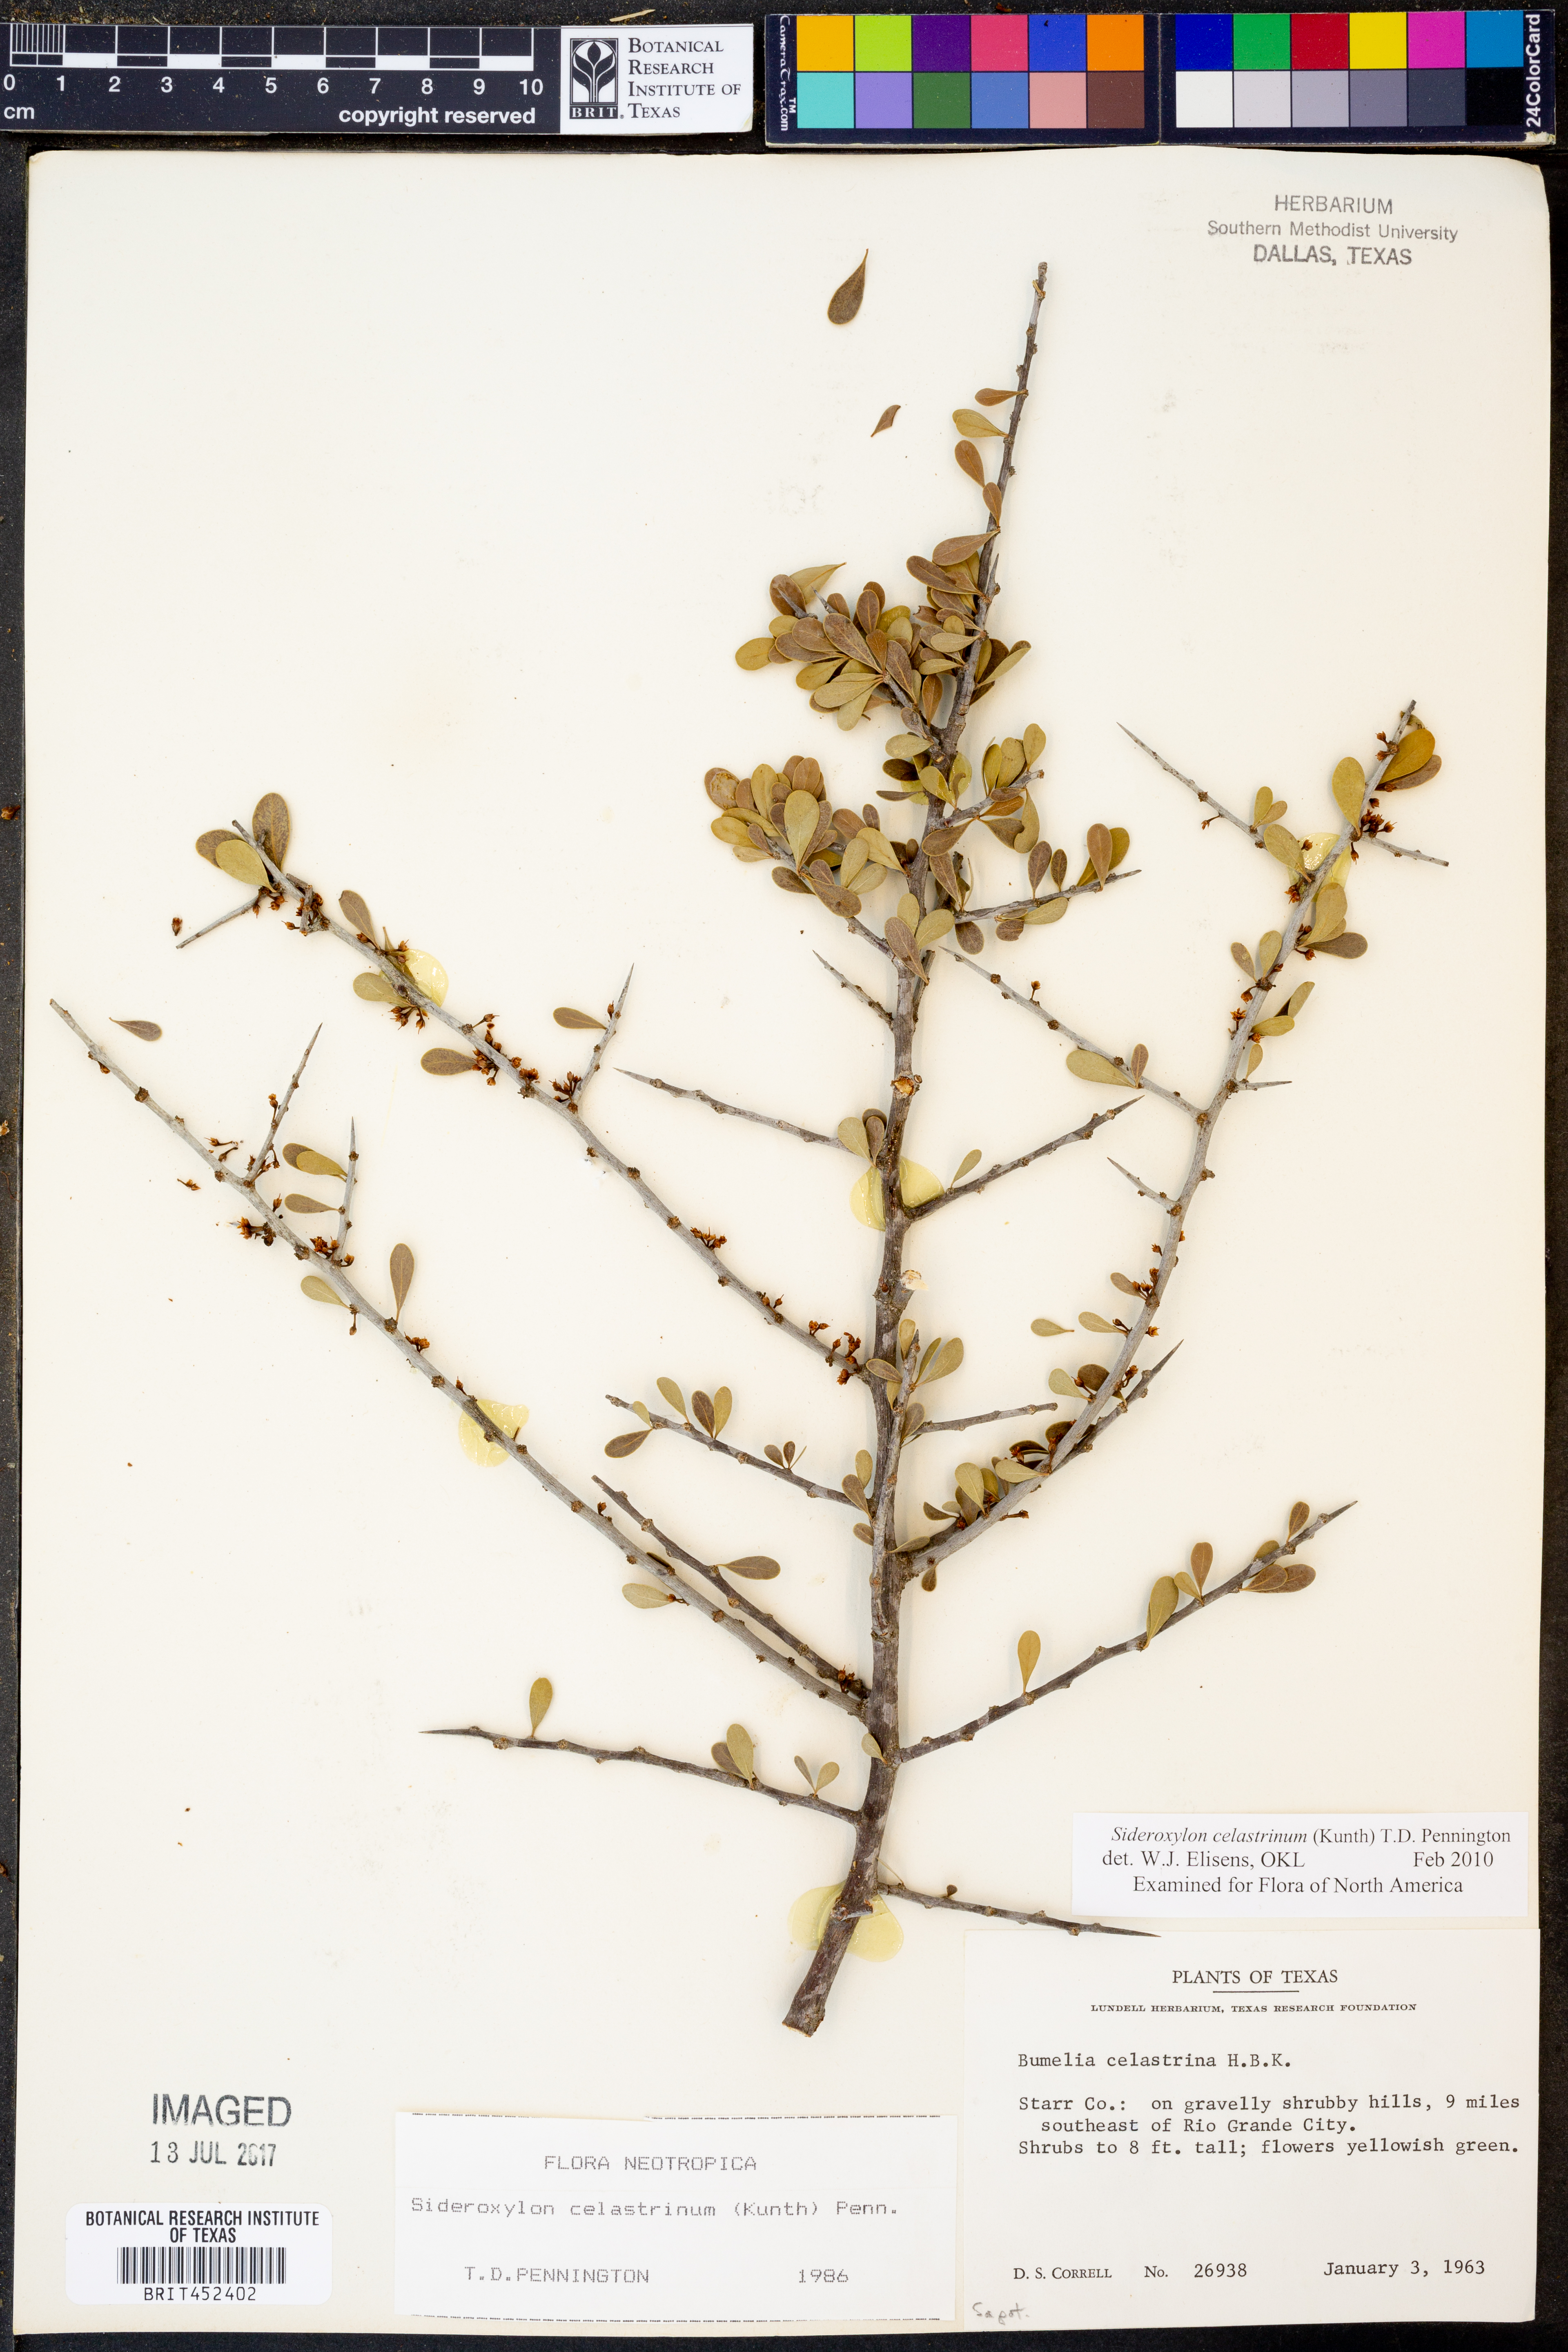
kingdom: Plantae
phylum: Tracheophyta
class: Magnoliopsida
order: Ericales
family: Sapotaceae
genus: Sideroxylon
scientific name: Sideroxylon celastrinum
